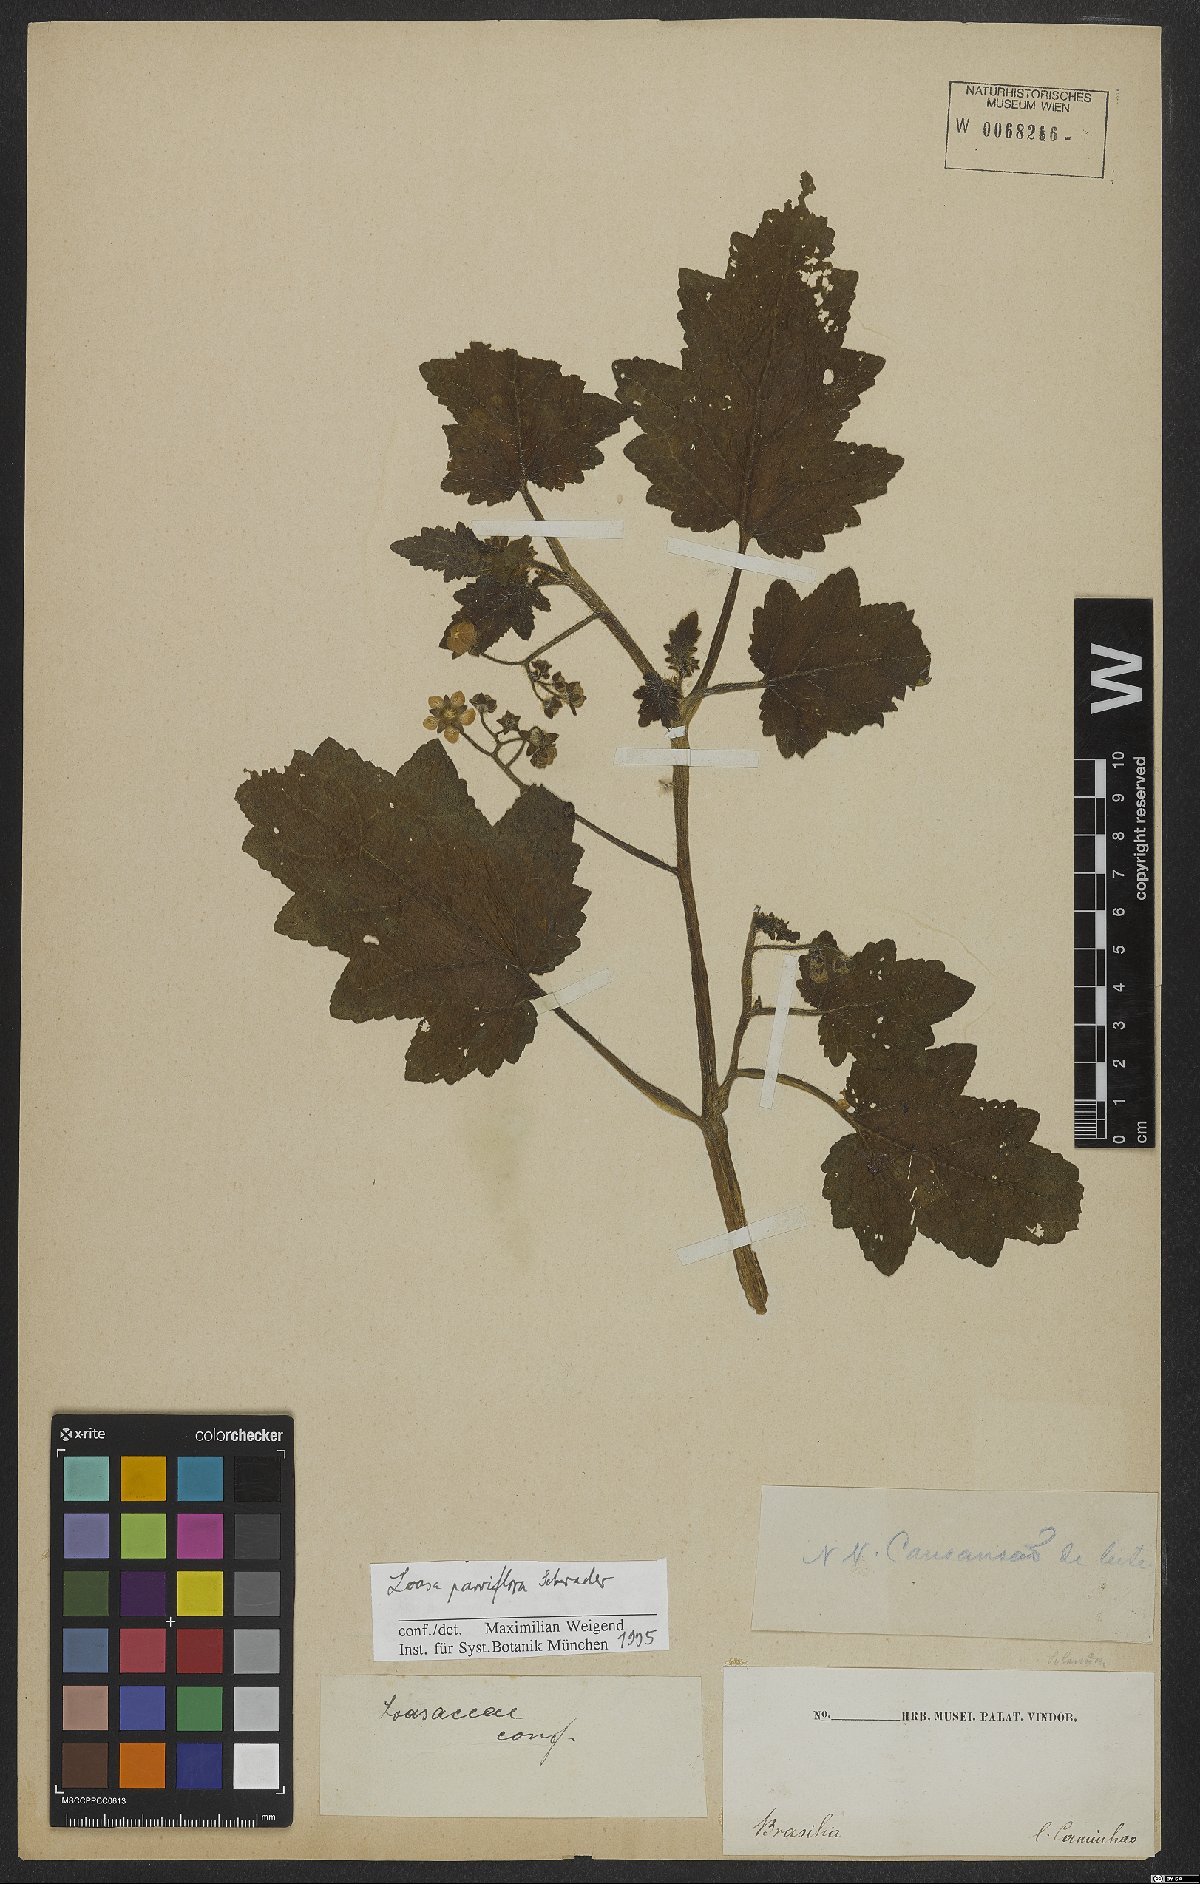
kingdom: Plantae
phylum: Tracheophyta
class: Magnoliopsida
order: Cornales
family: Loasaceae
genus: Aosa
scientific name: Aosa parviflora
